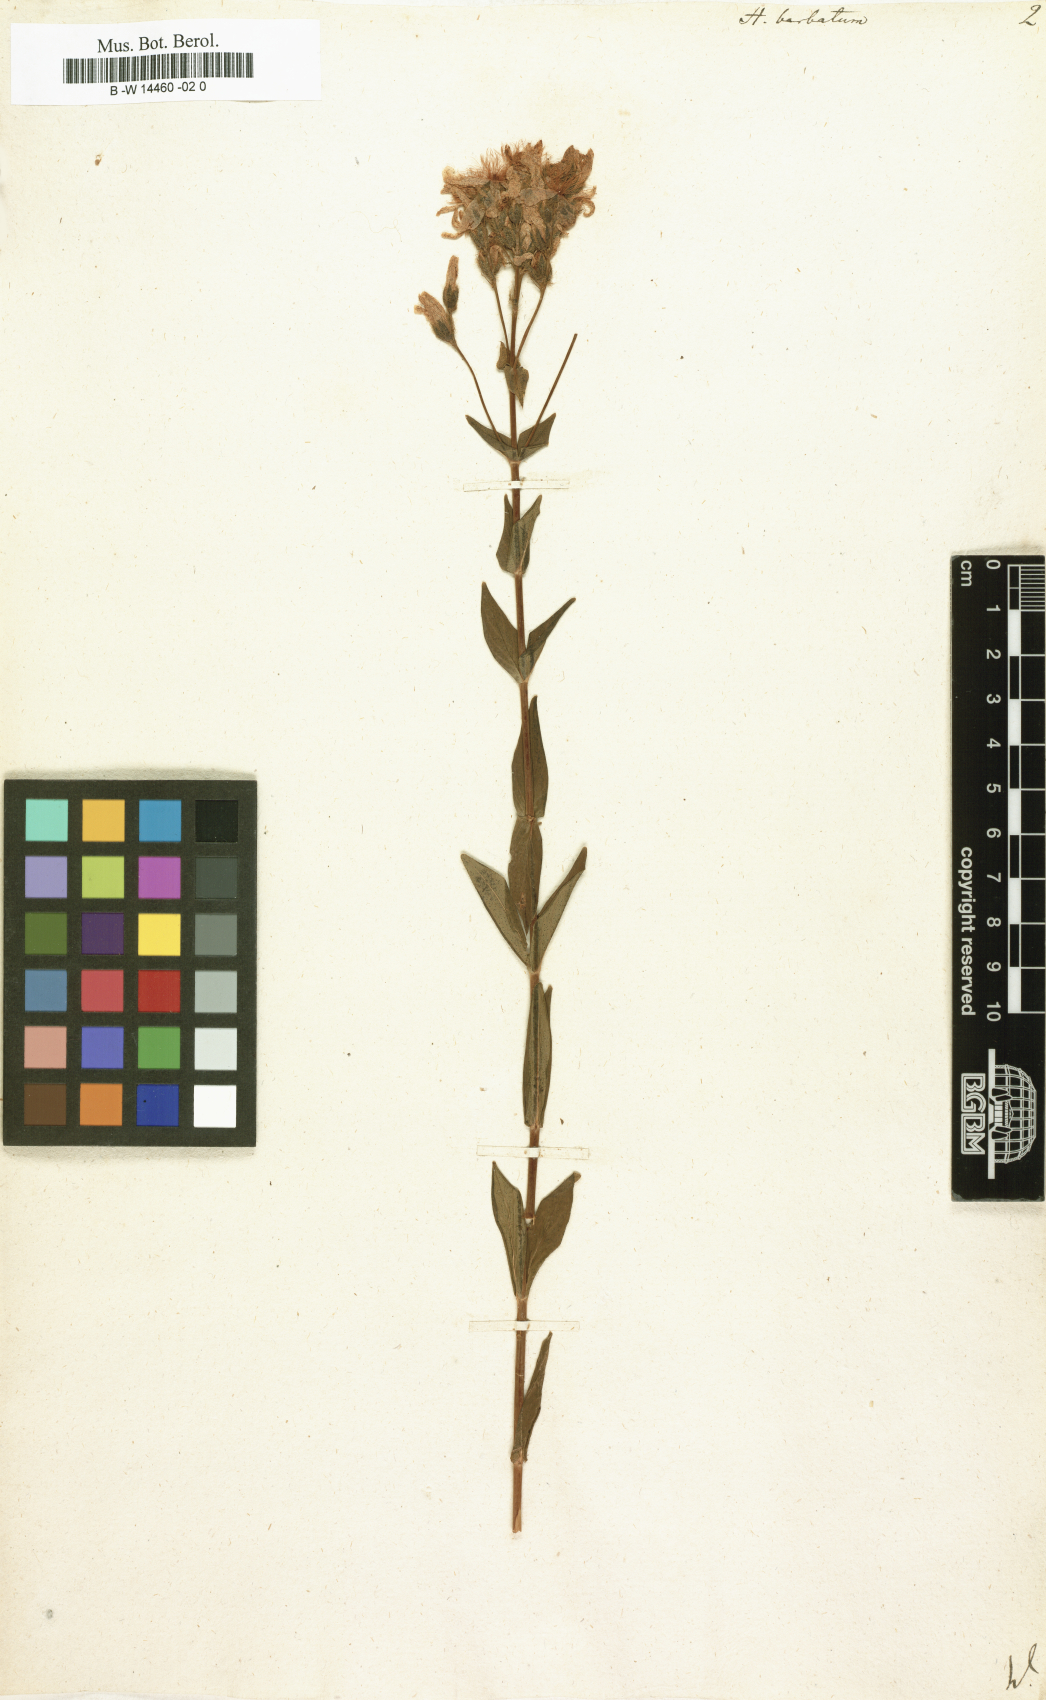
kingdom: Plantae
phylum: Tracheophyta
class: Magnoliopsida
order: Malpighiales
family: Hypericaceae
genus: Hypericum
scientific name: Hypericum barbatum
